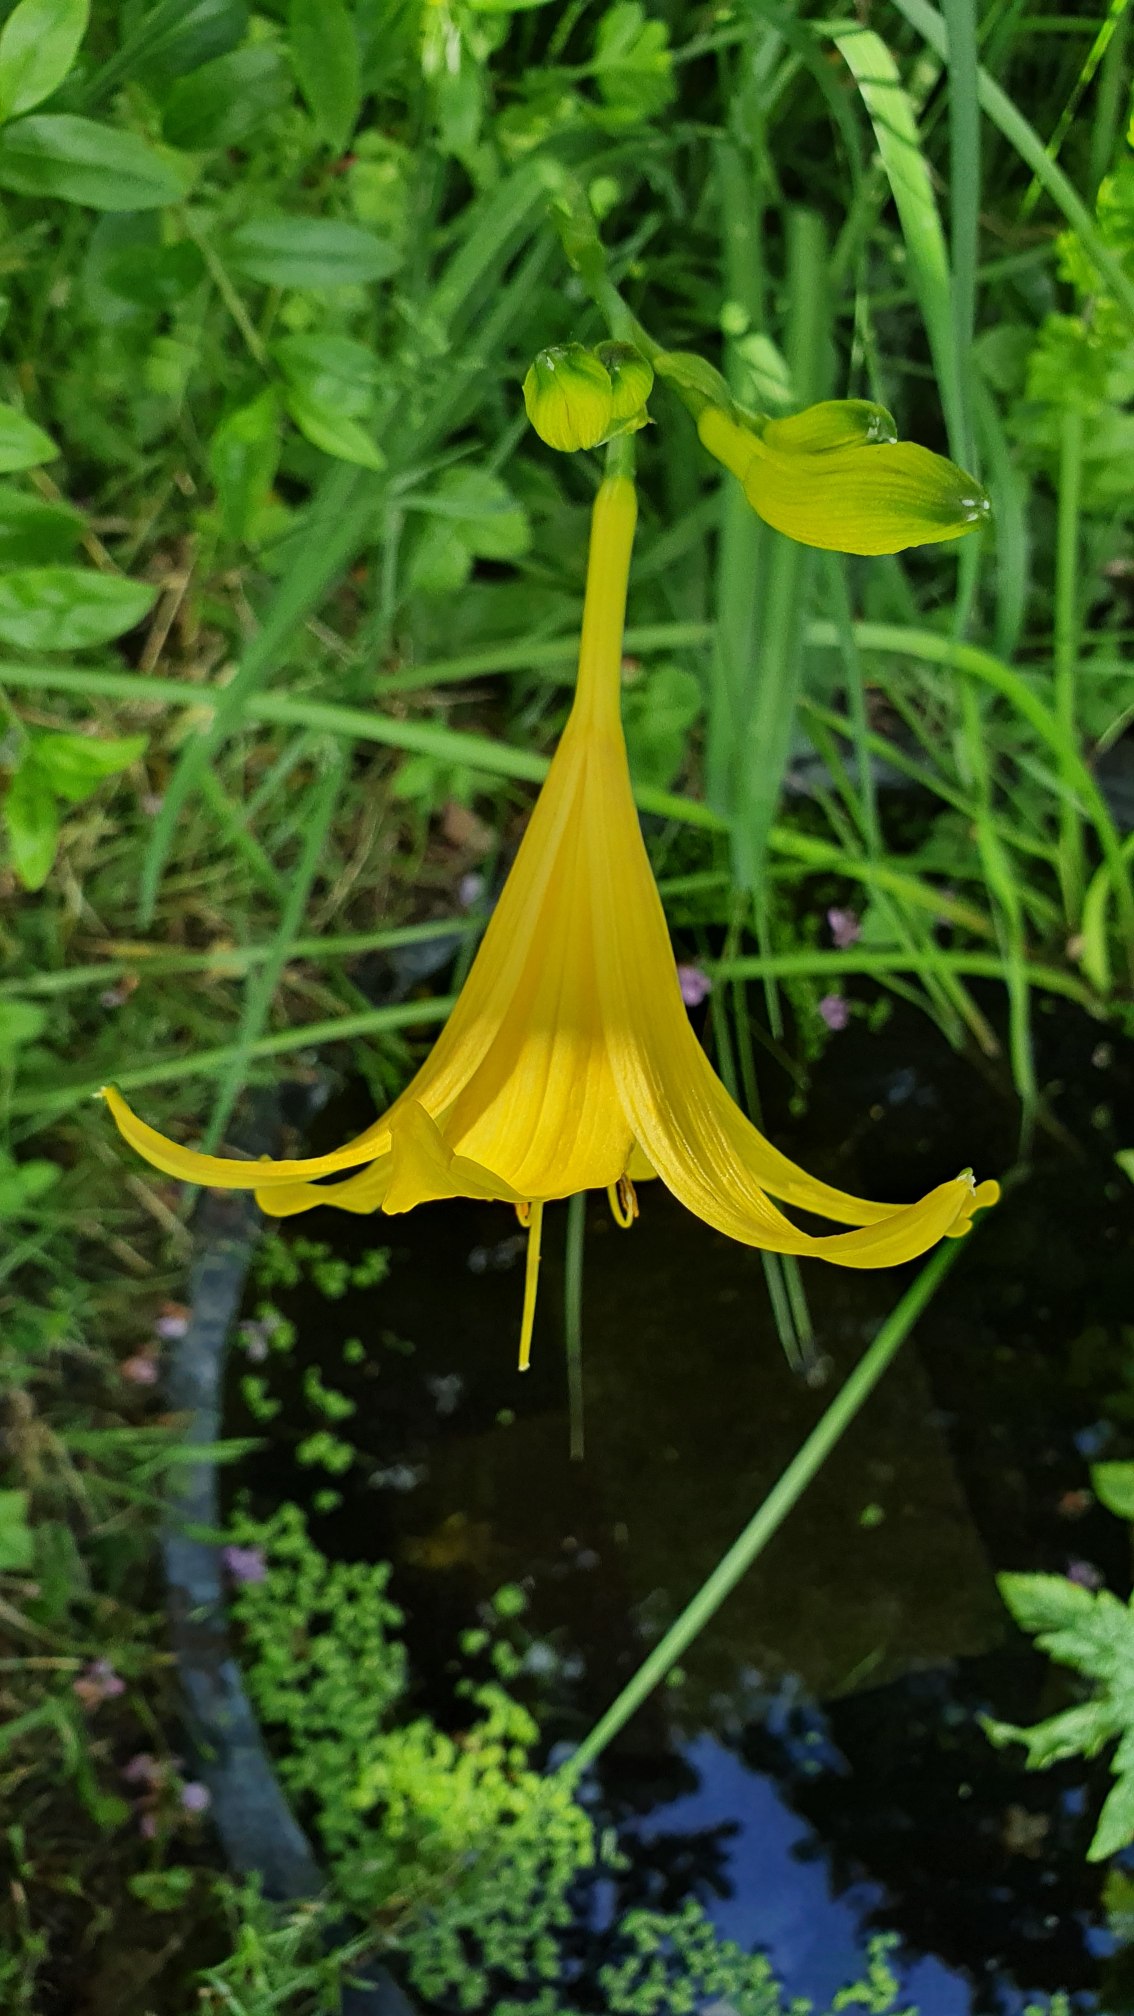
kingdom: Plantae
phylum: Tracheophyta
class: Liliopsida
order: Asparagales
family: Asphodelaceae
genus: Hemerocallis
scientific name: Hemerocallis lilioasphodelus
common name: Gul daglilje
